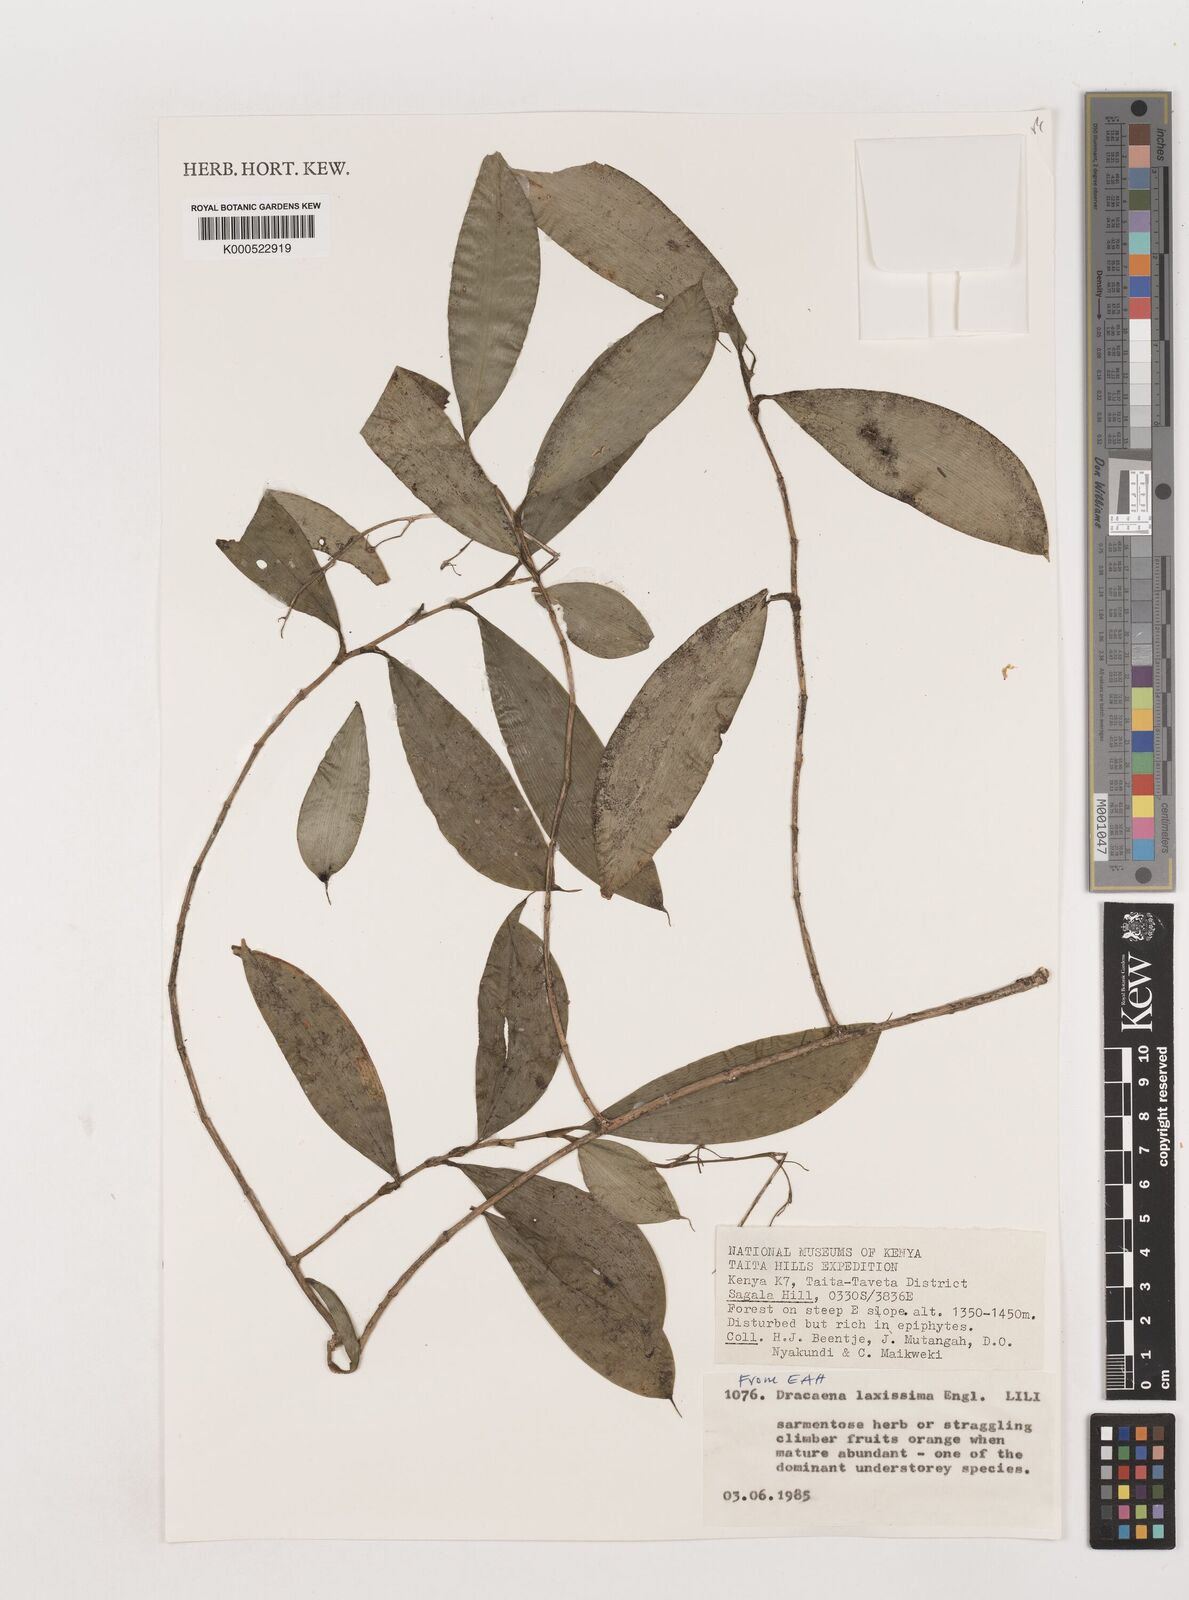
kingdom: Plantae
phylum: Tracheophyta
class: Liliopsida
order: Asparagales
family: Asparagaceae
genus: Dracaena
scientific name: Dracaena laxissima
